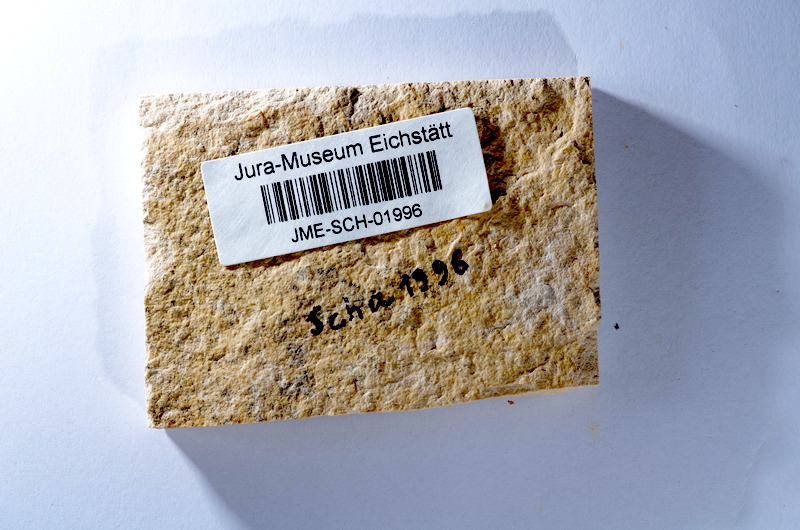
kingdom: Animalia
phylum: Chordata
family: Ascalaboidae
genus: Tharsis
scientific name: Tharsis dubius
